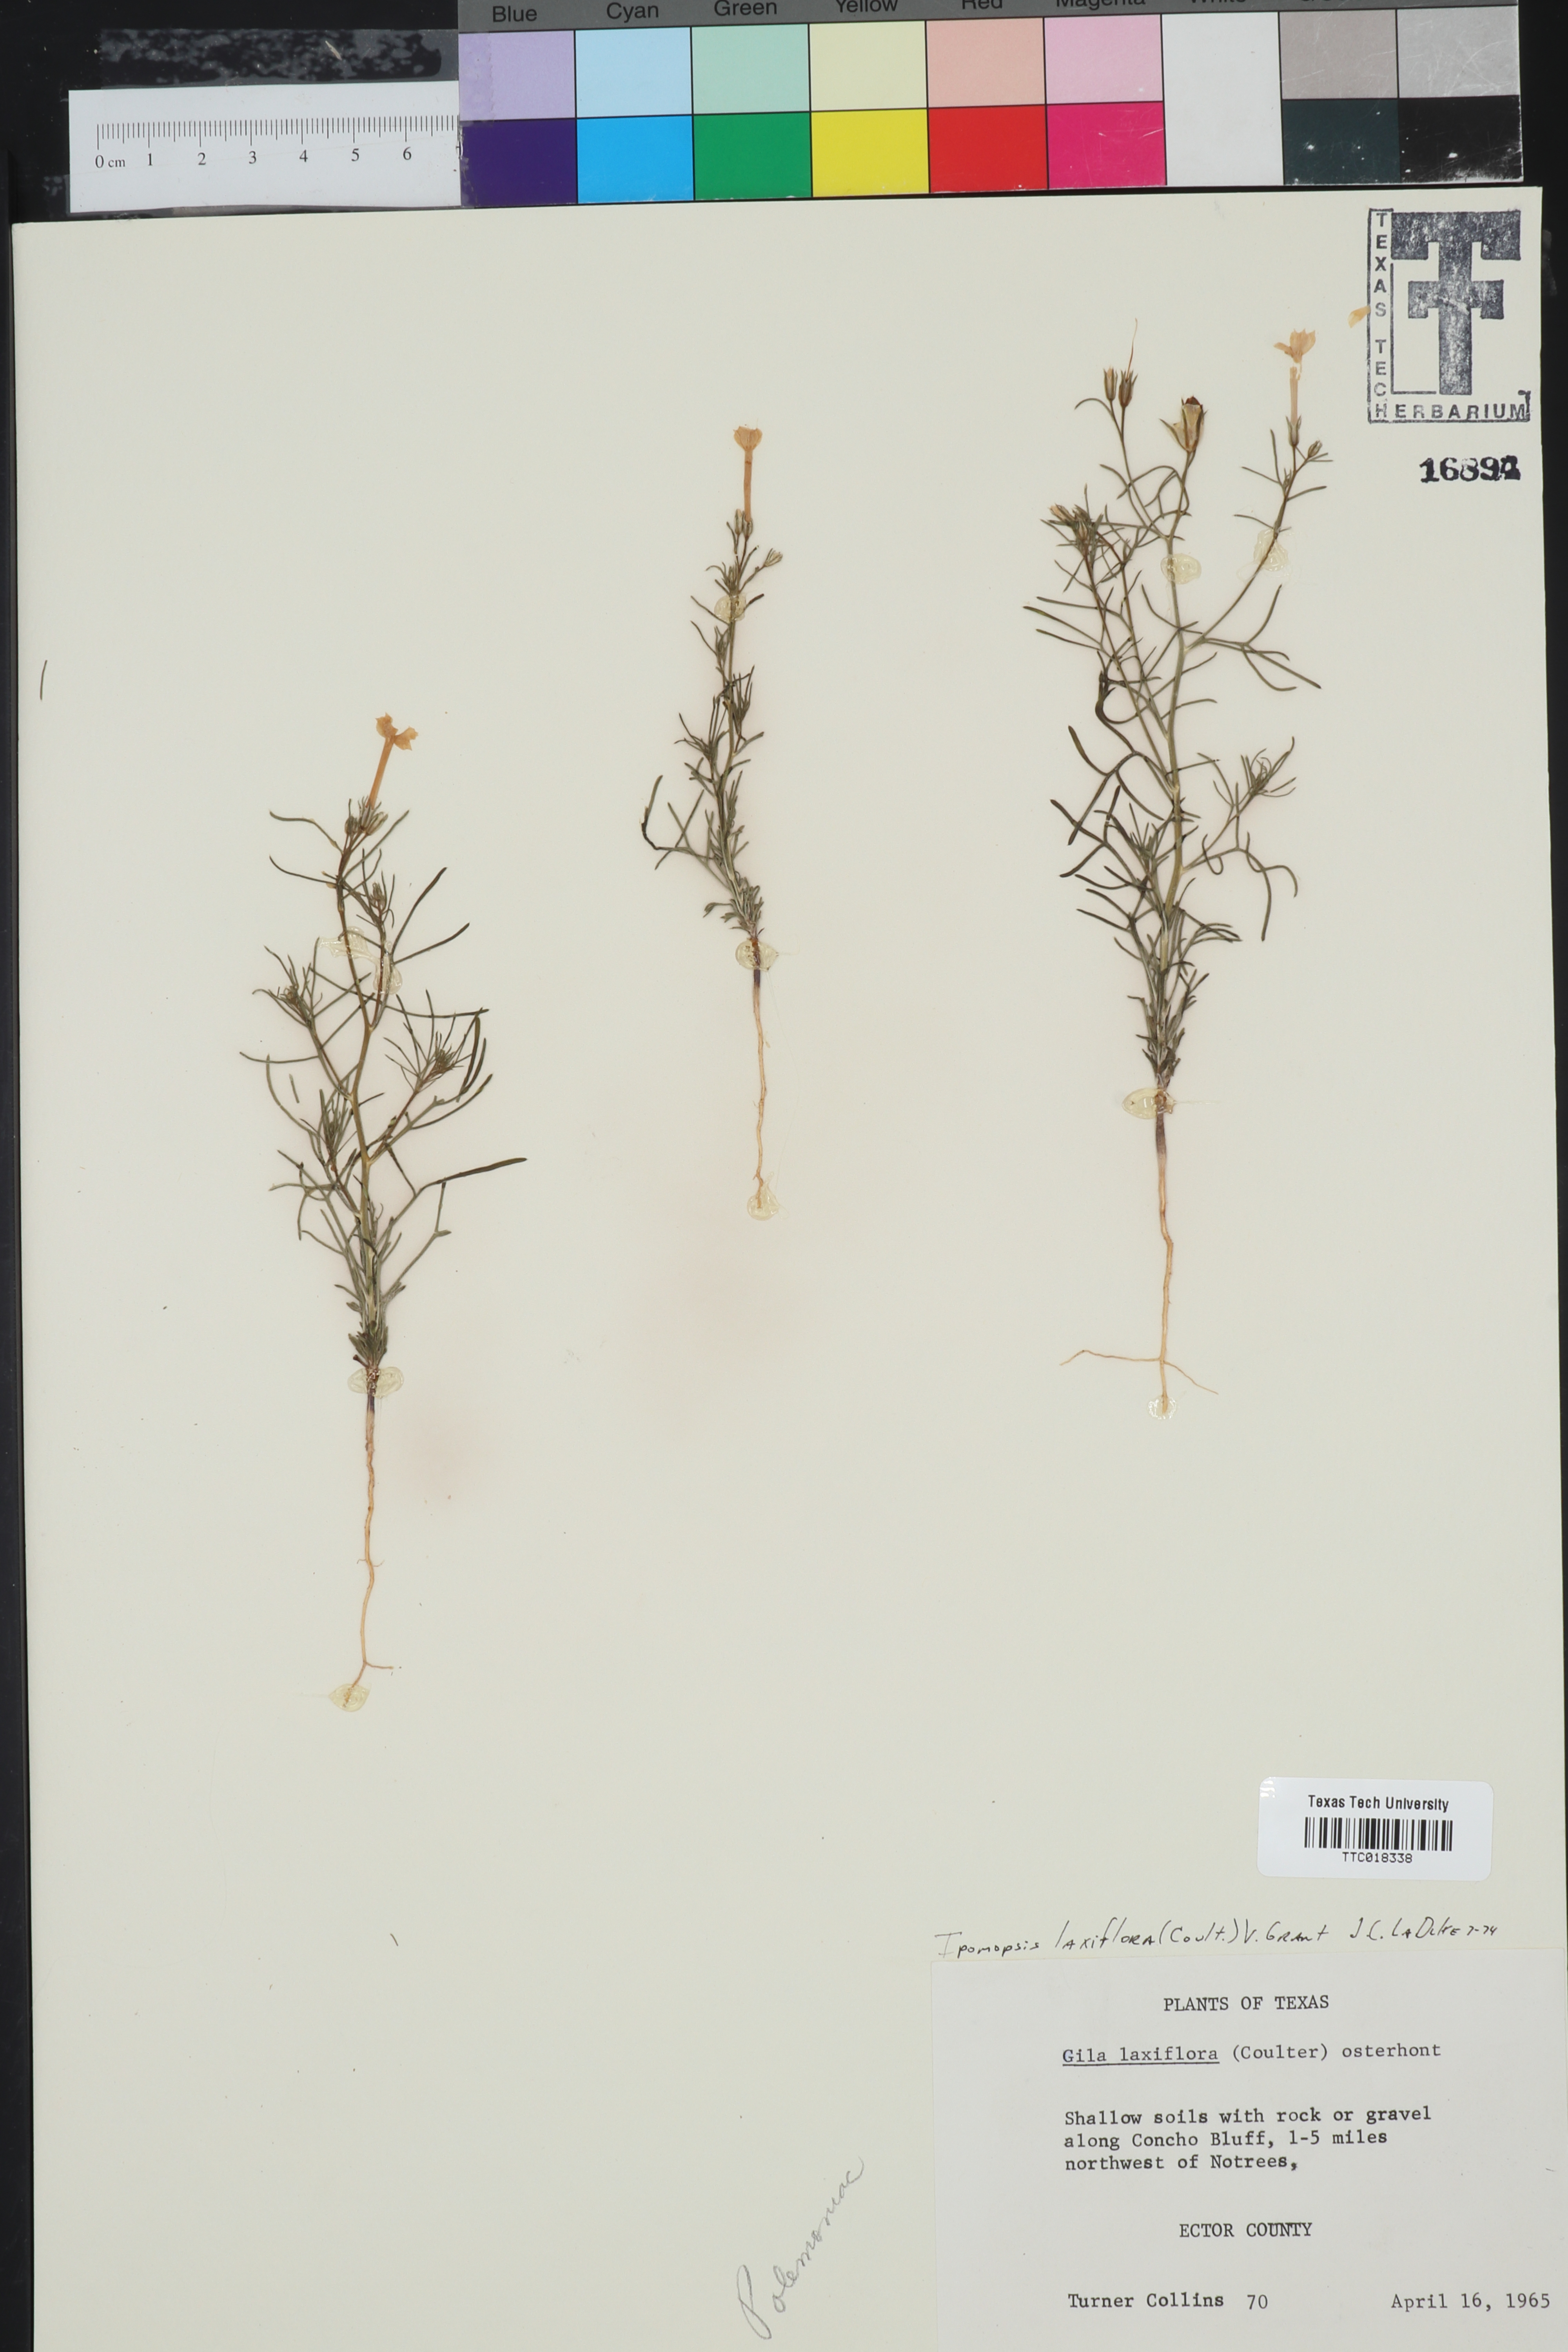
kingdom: Plantae
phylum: Tracheophyta
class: Magnoliopsida
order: Ericales
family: Polemoniaceae
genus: Ipomopsis
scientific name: Ipomopsis laxiflora
